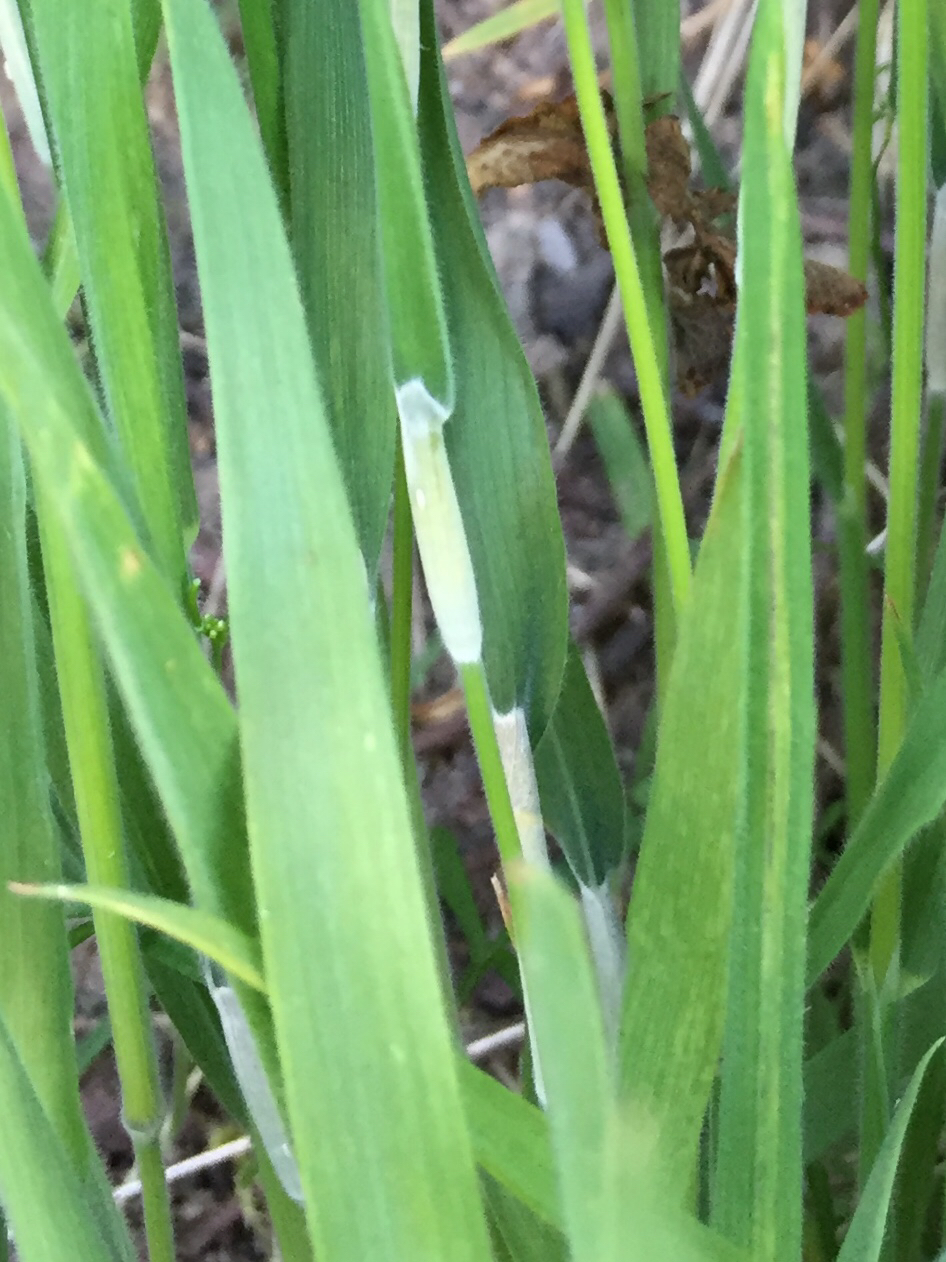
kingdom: Fungi
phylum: Ascomycota
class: Sordariomycetes
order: Hypocreales
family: Clavicipitaceae
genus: Epichloe
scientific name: Epichloe clarkii
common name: fløjlsgræs-kernerør
